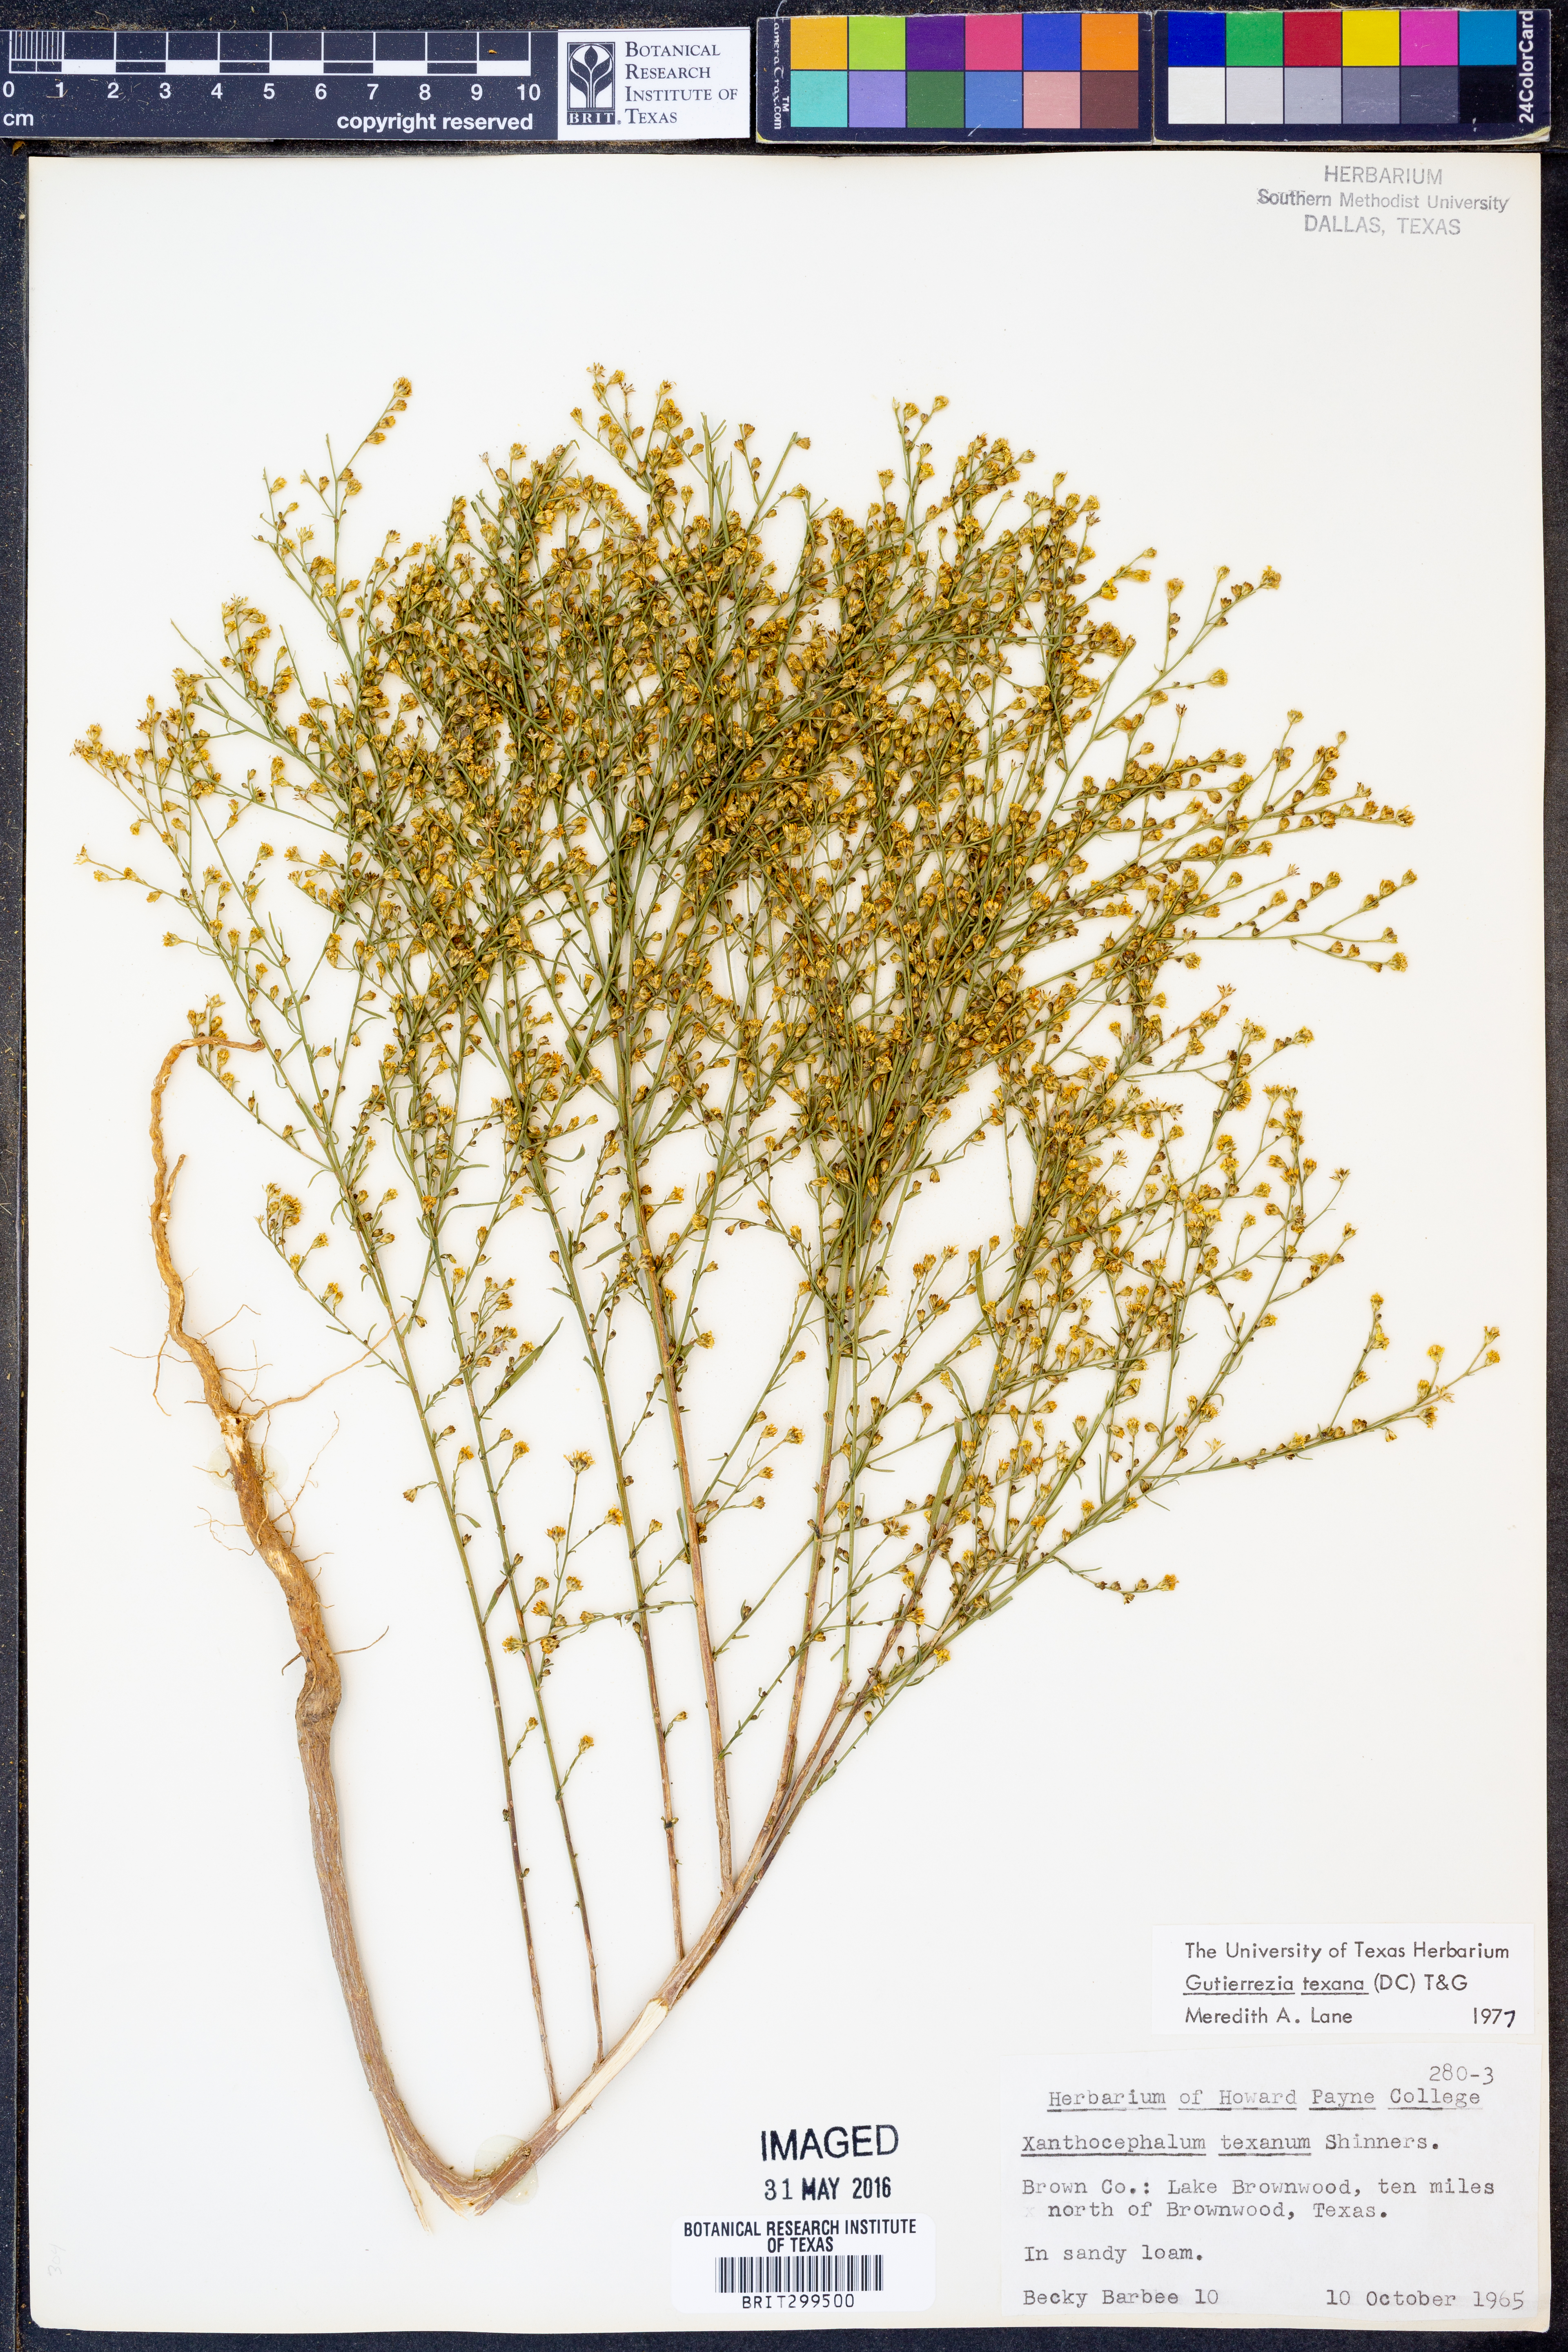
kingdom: Plantae
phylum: Tracheophyta
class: Magnoliopsida
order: Asterales
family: Asteraceae
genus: Gutierrezia
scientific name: Gutierrezia texana
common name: Texas snakeweed
